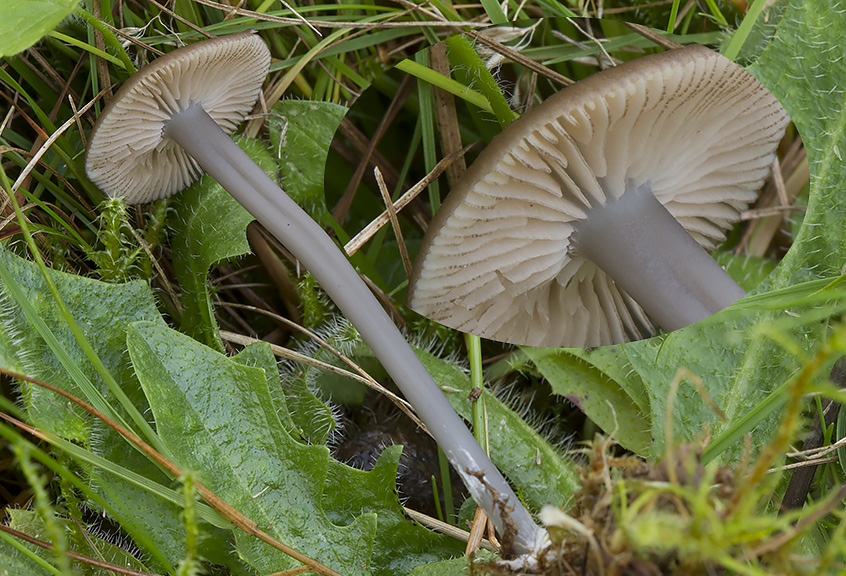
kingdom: Fungi
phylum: Basidiomycota
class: Agaricomycetes
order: Agaricales
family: Entolomataceae
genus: Entoloma
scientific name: Entoloma allospermum
